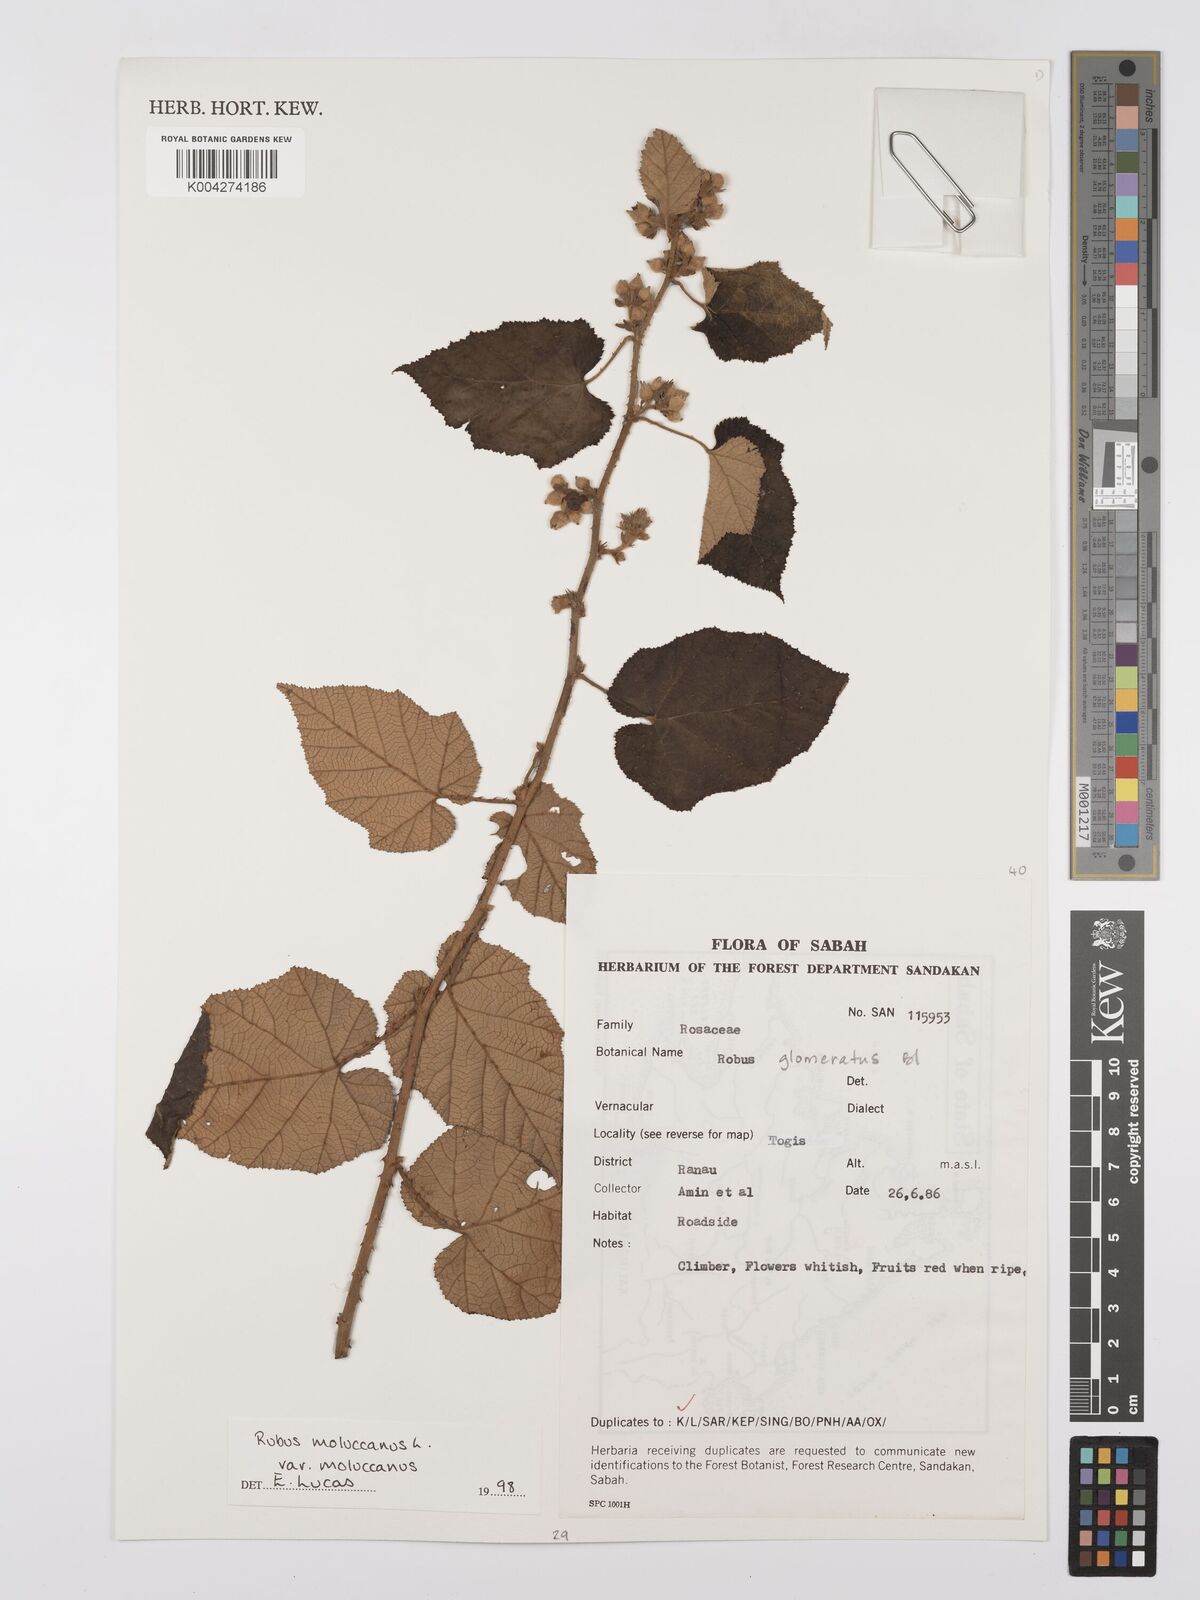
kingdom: Plantae
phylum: Tracheophyta
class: Magnoliopsida
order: Rosales
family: Rosaceae
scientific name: Rosaceae
